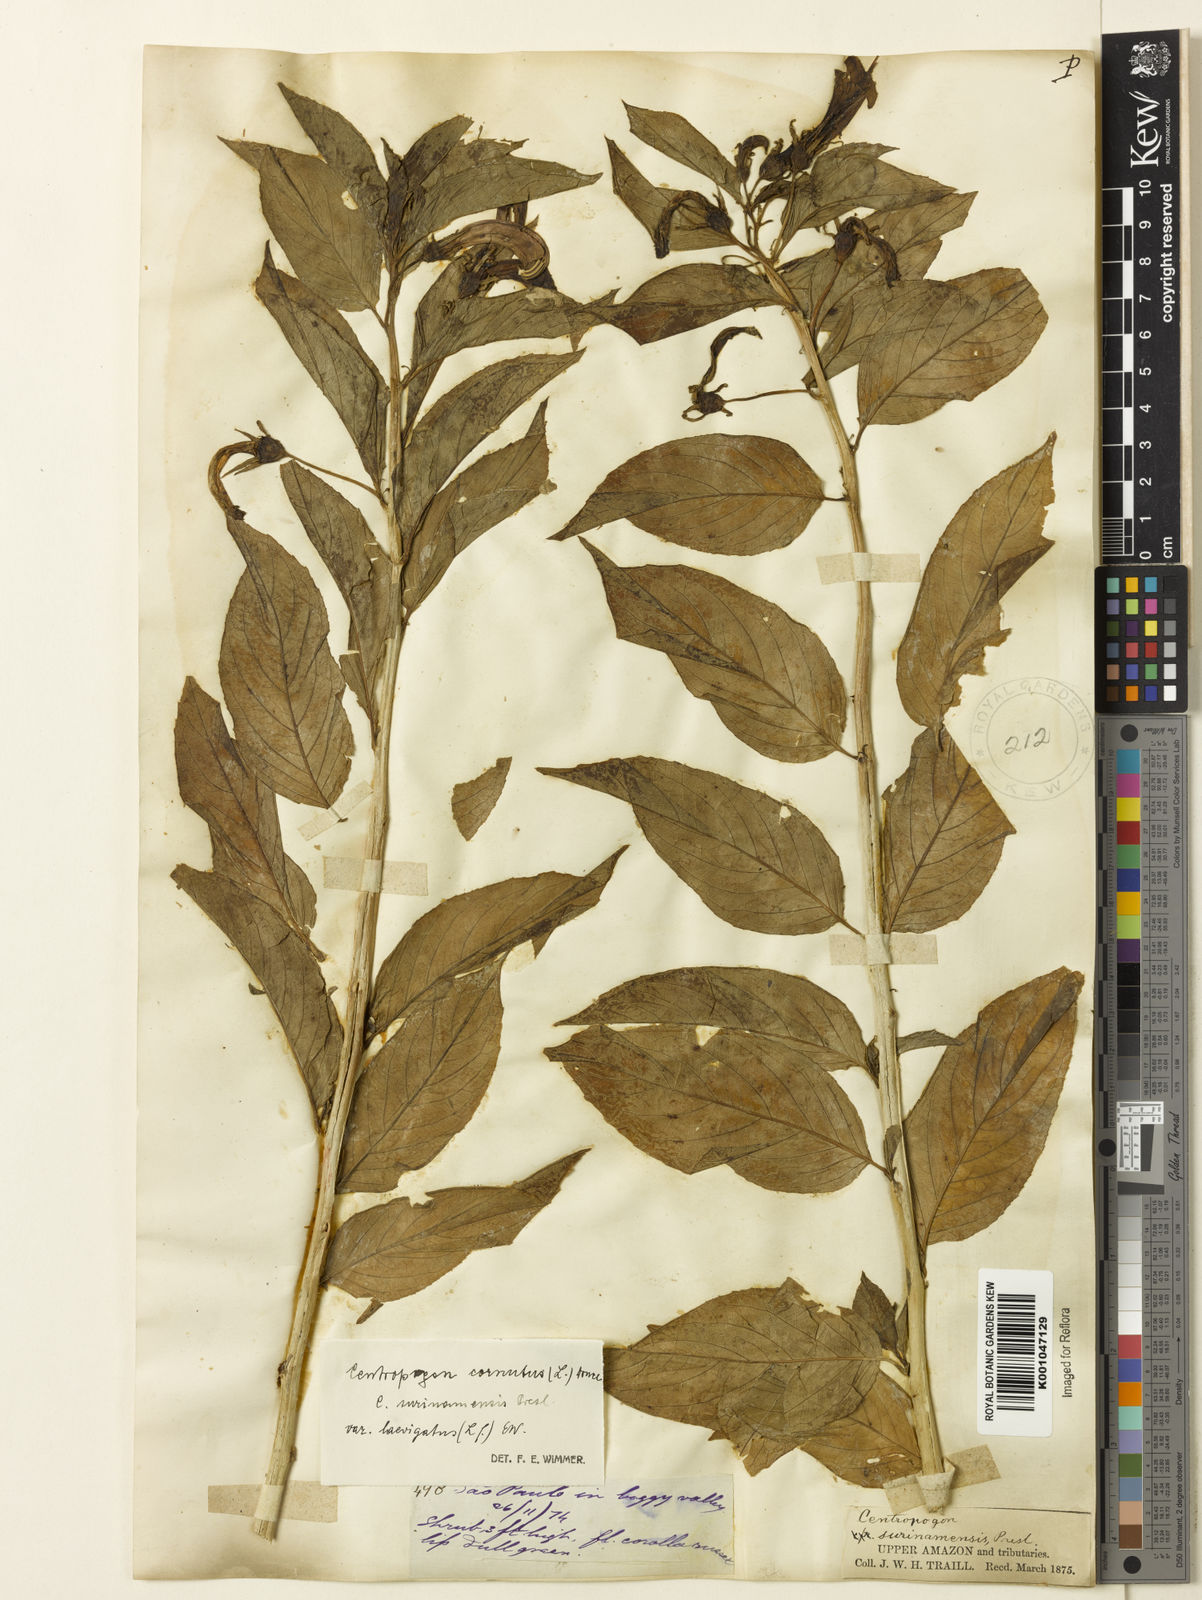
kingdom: Plantae
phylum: Tracheophyta
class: Magnoliopsida
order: Asterales
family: Campanulaceae
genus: Centropogon
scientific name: Centropogon cornutus
